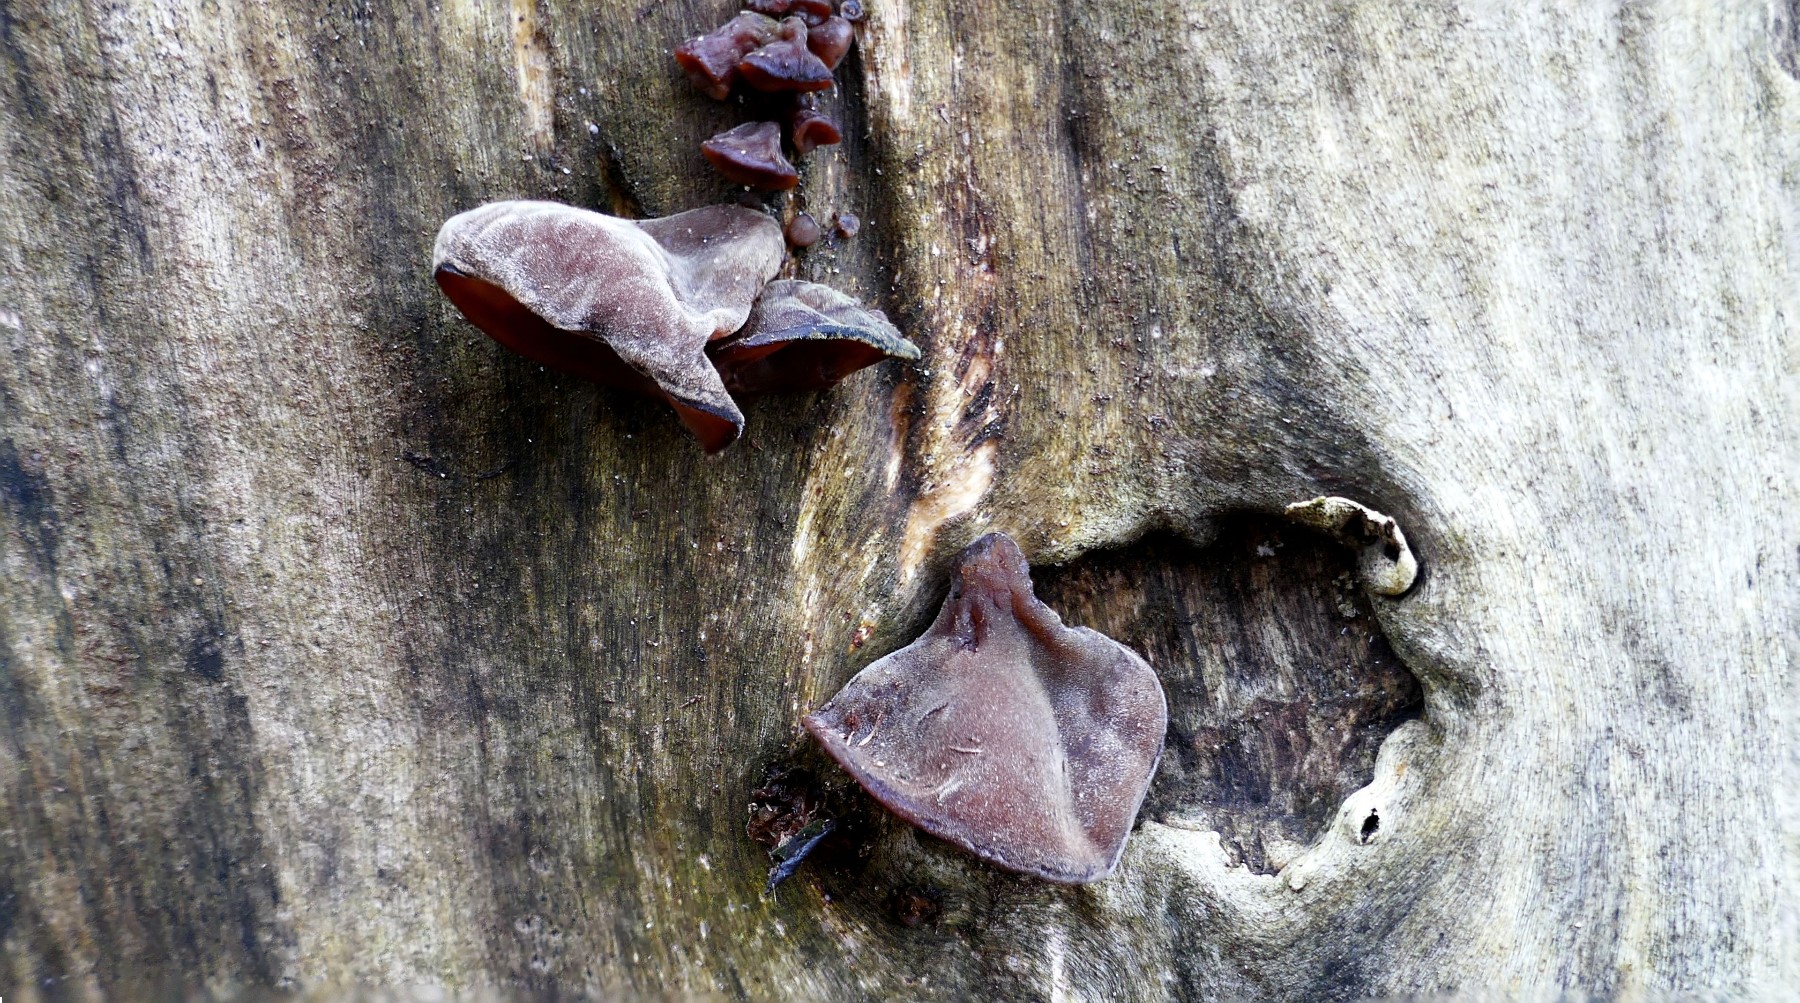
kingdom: Fungi
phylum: Basidiomycota
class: Agaricomycetes
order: Auriculariales
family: Auriculariaceae
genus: Auricularia
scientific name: Auricularia auricula-judae
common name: almindelig judasøre
